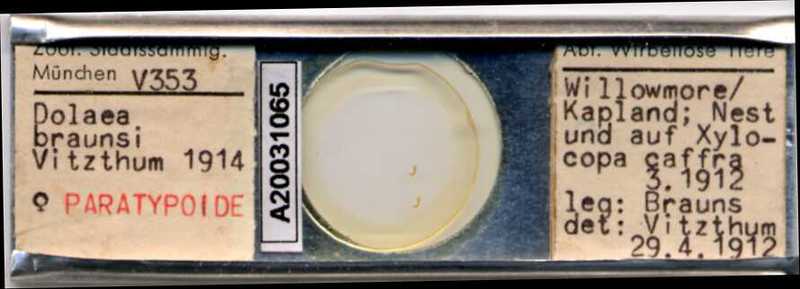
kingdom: Animalia
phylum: Arthropoda
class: Arachnida
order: Mesostigmata
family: Laelapidae
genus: Dinogamasus
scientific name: Dinogamasus
